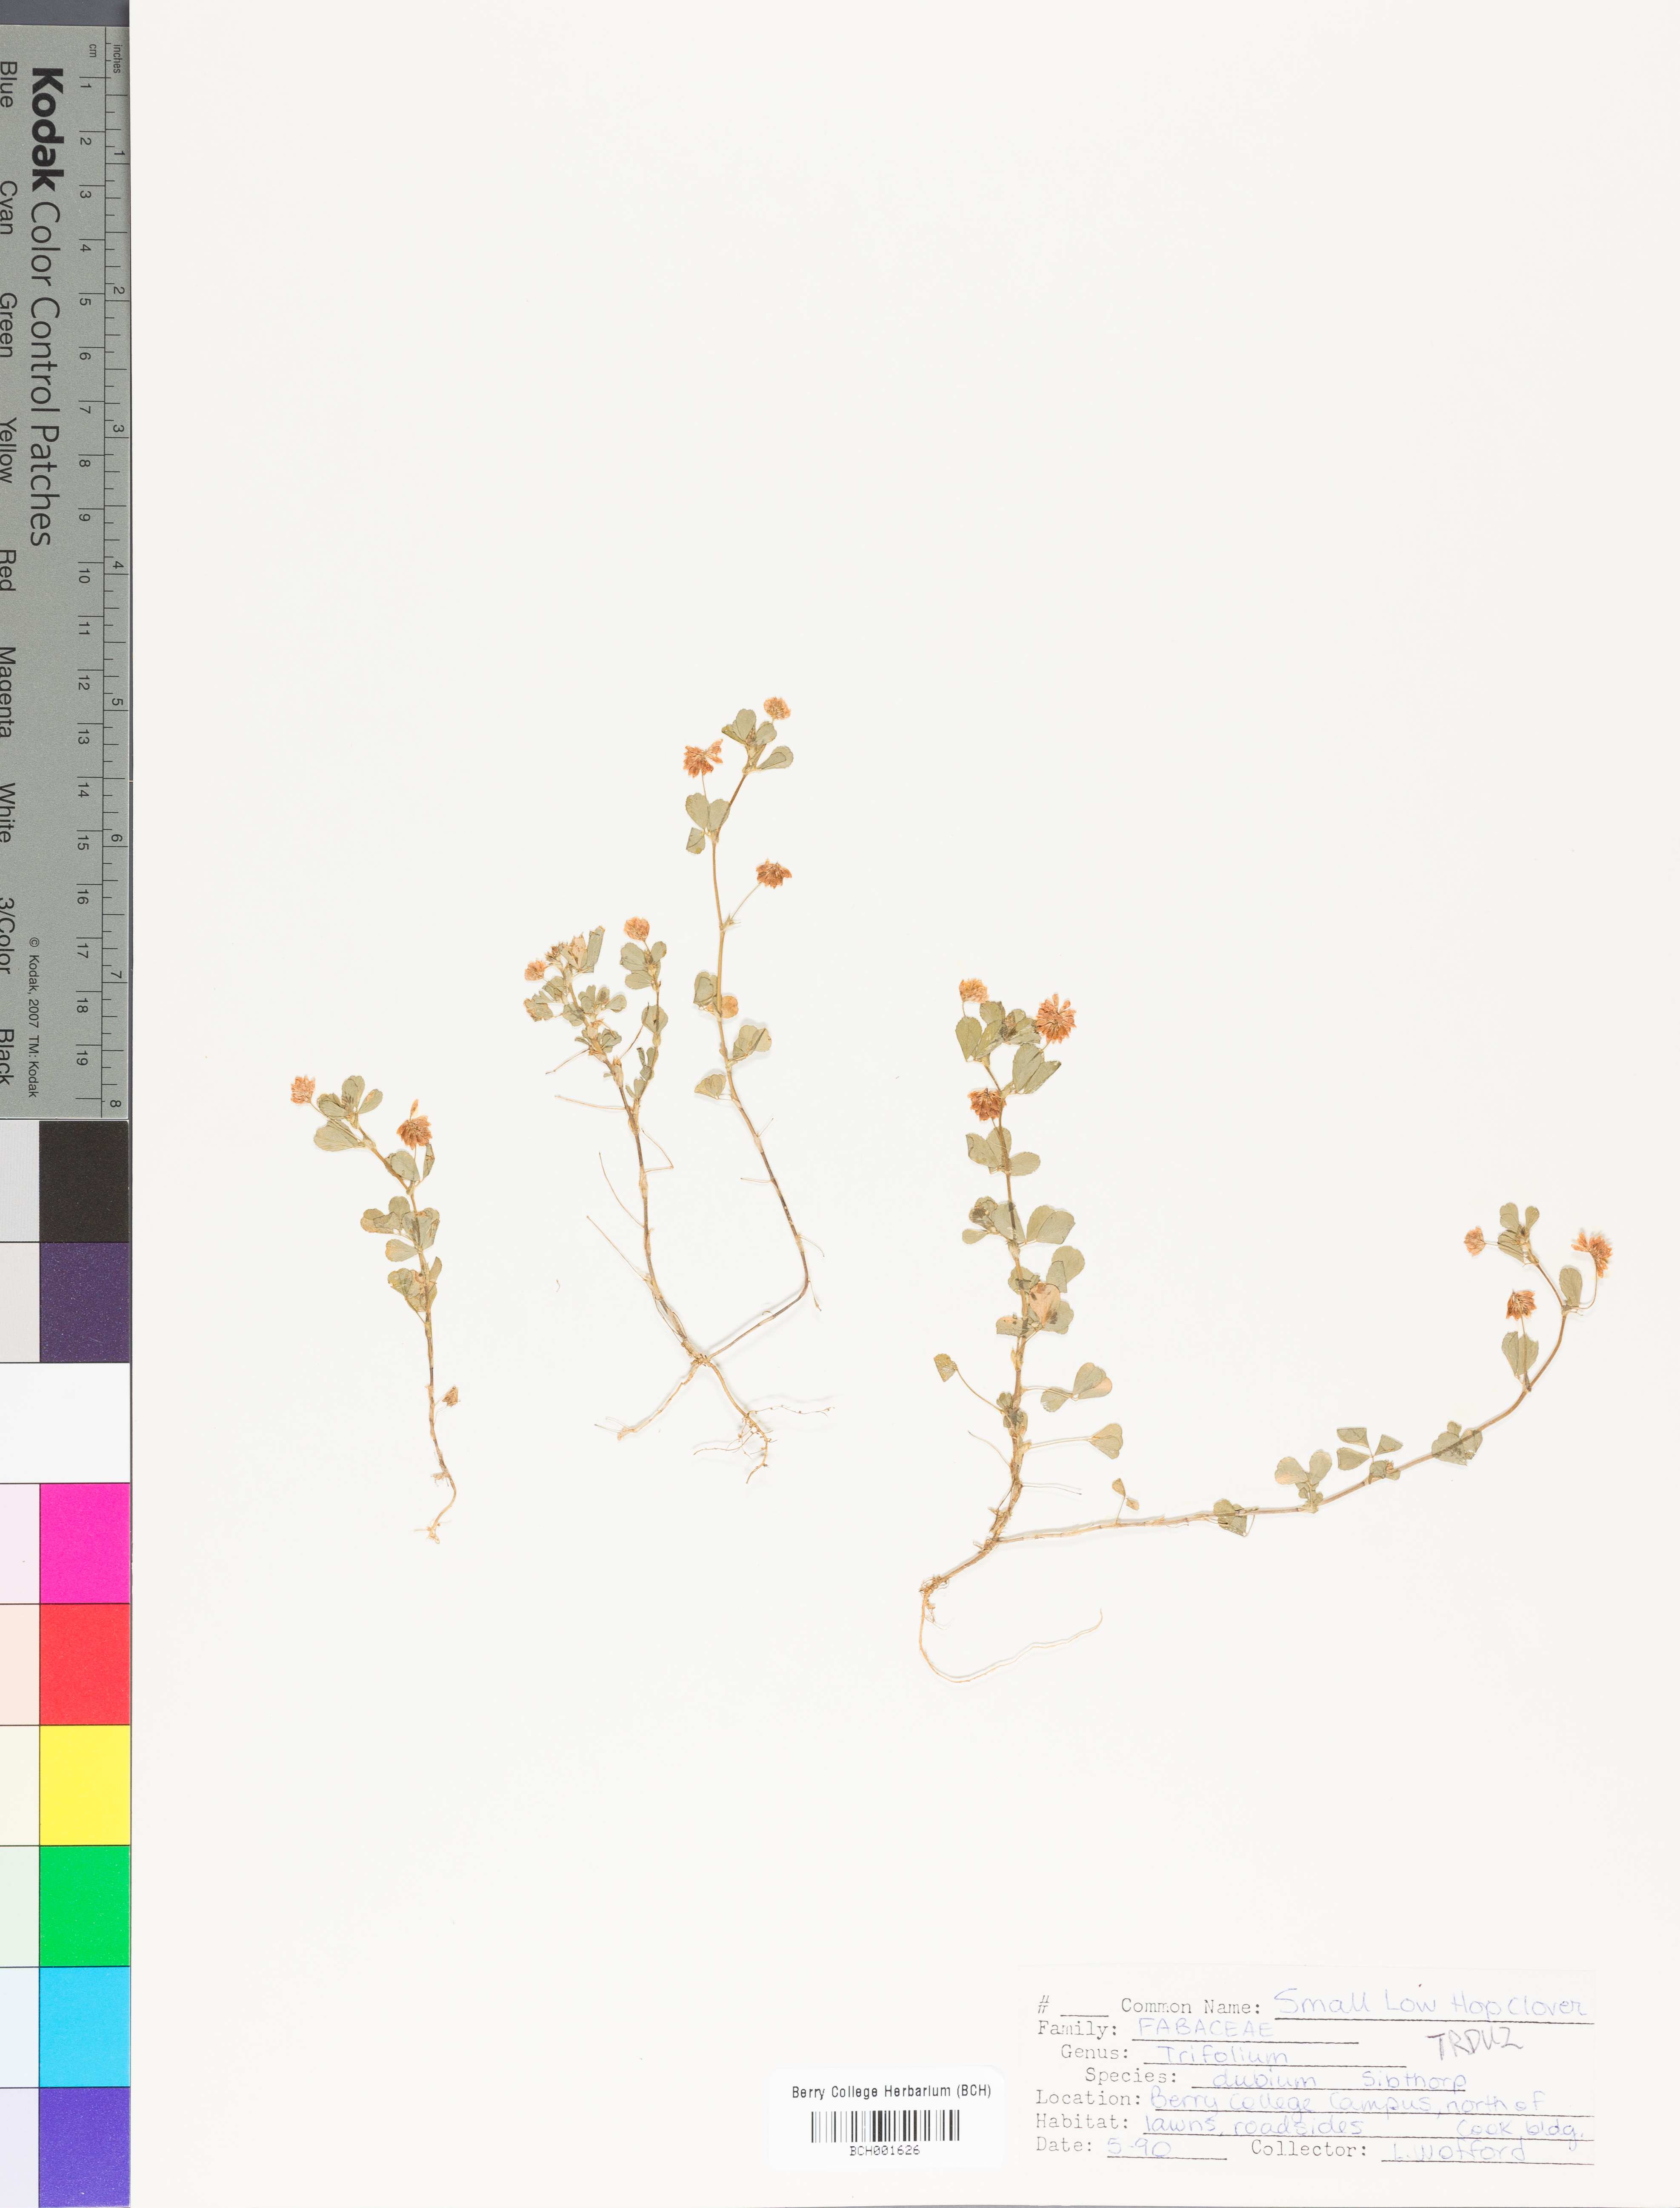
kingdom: Plantae
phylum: Tracheophyta
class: Magnoliopsida
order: Fabales
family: Fabaceae
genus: Trifolium
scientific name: Trifolium dubium
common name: Suckling clover
